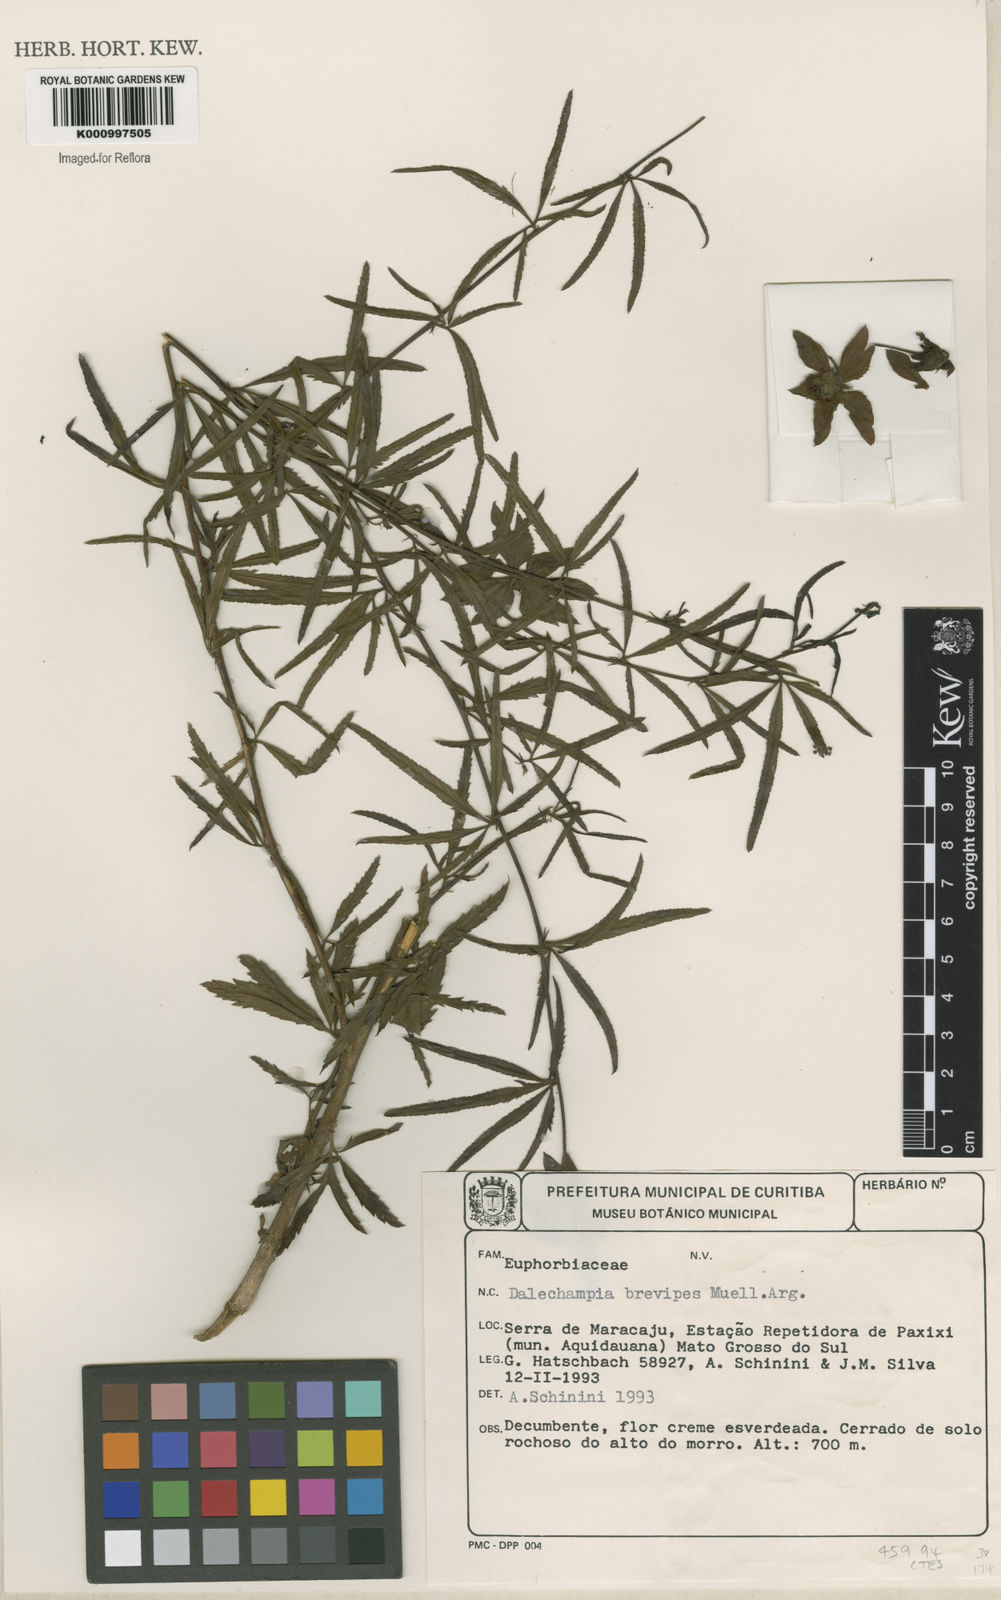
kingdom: Plantae
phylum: Tracheophyta
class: Magnoliopsida
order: Malpighiales
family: Euphorbiaceae
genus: Dalechampia
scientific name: Dalechampia
